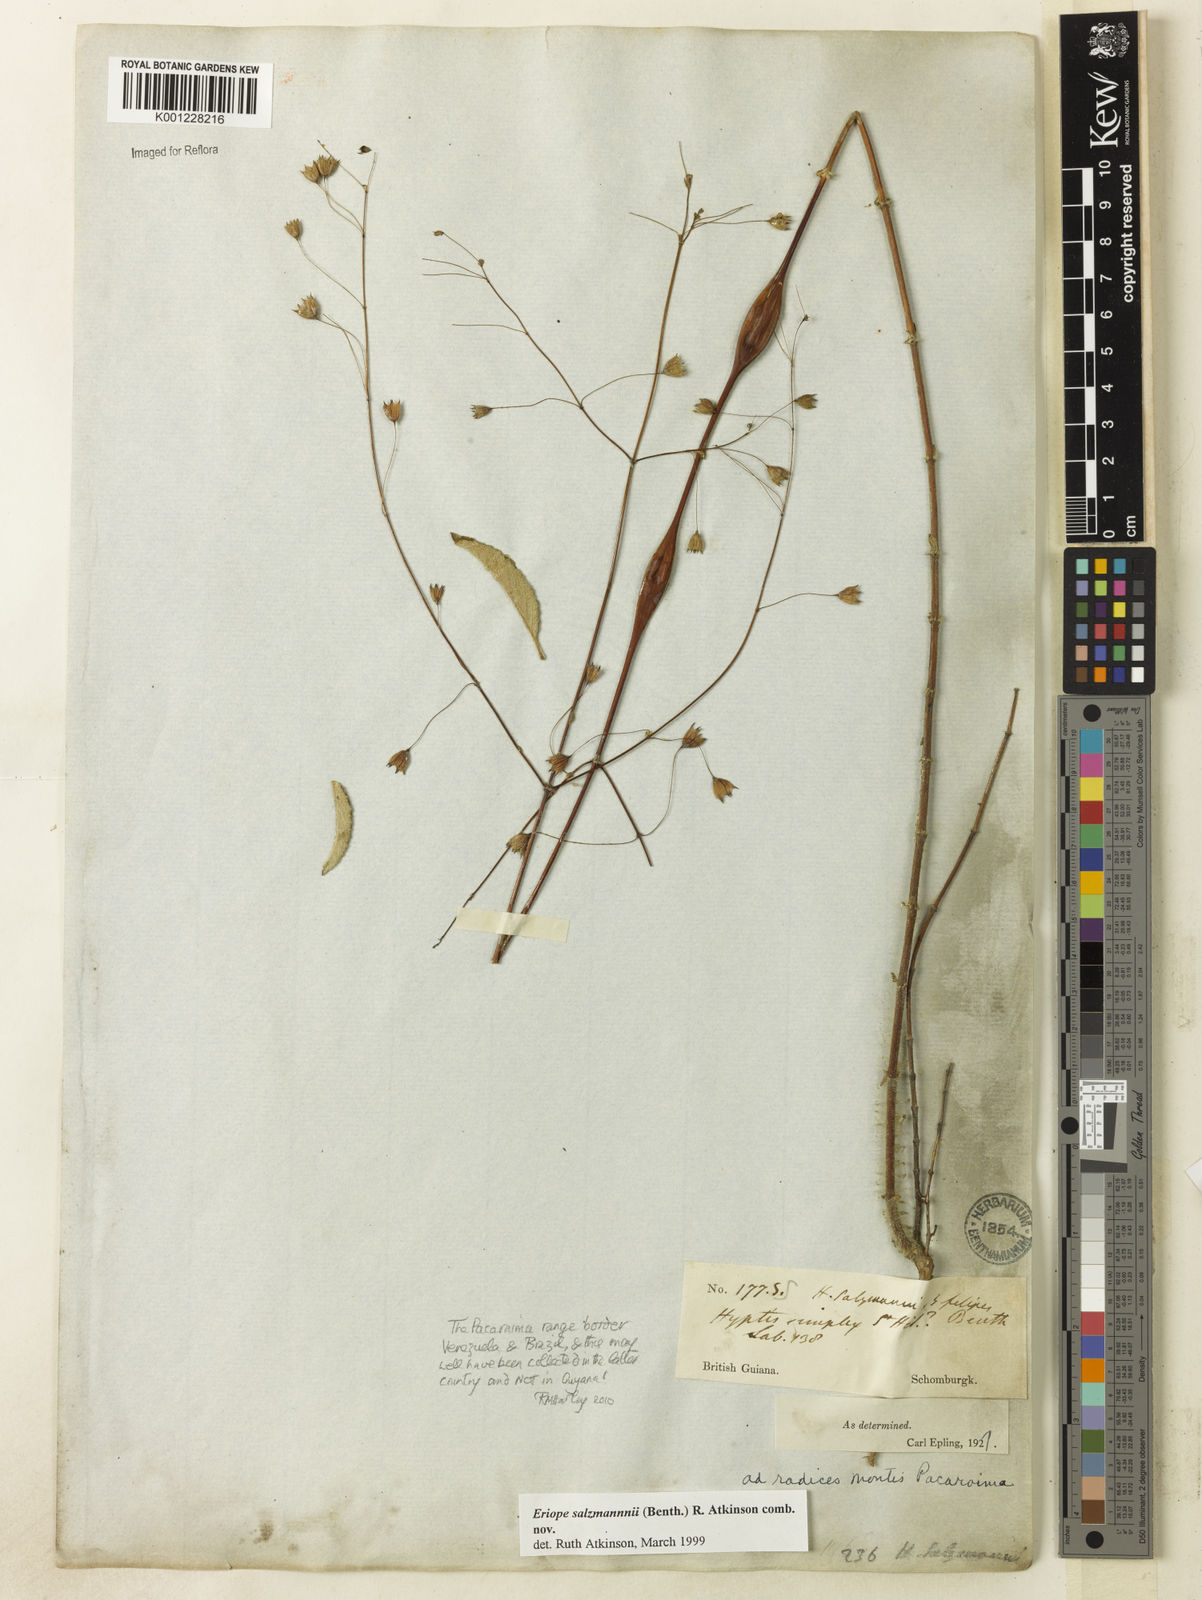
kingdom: Plantae
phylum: Tracheophyta
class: Magnoliopsida
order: Lamiales
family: Lamiaceae
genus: Hypenia
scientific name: Hypenia salzmannii
